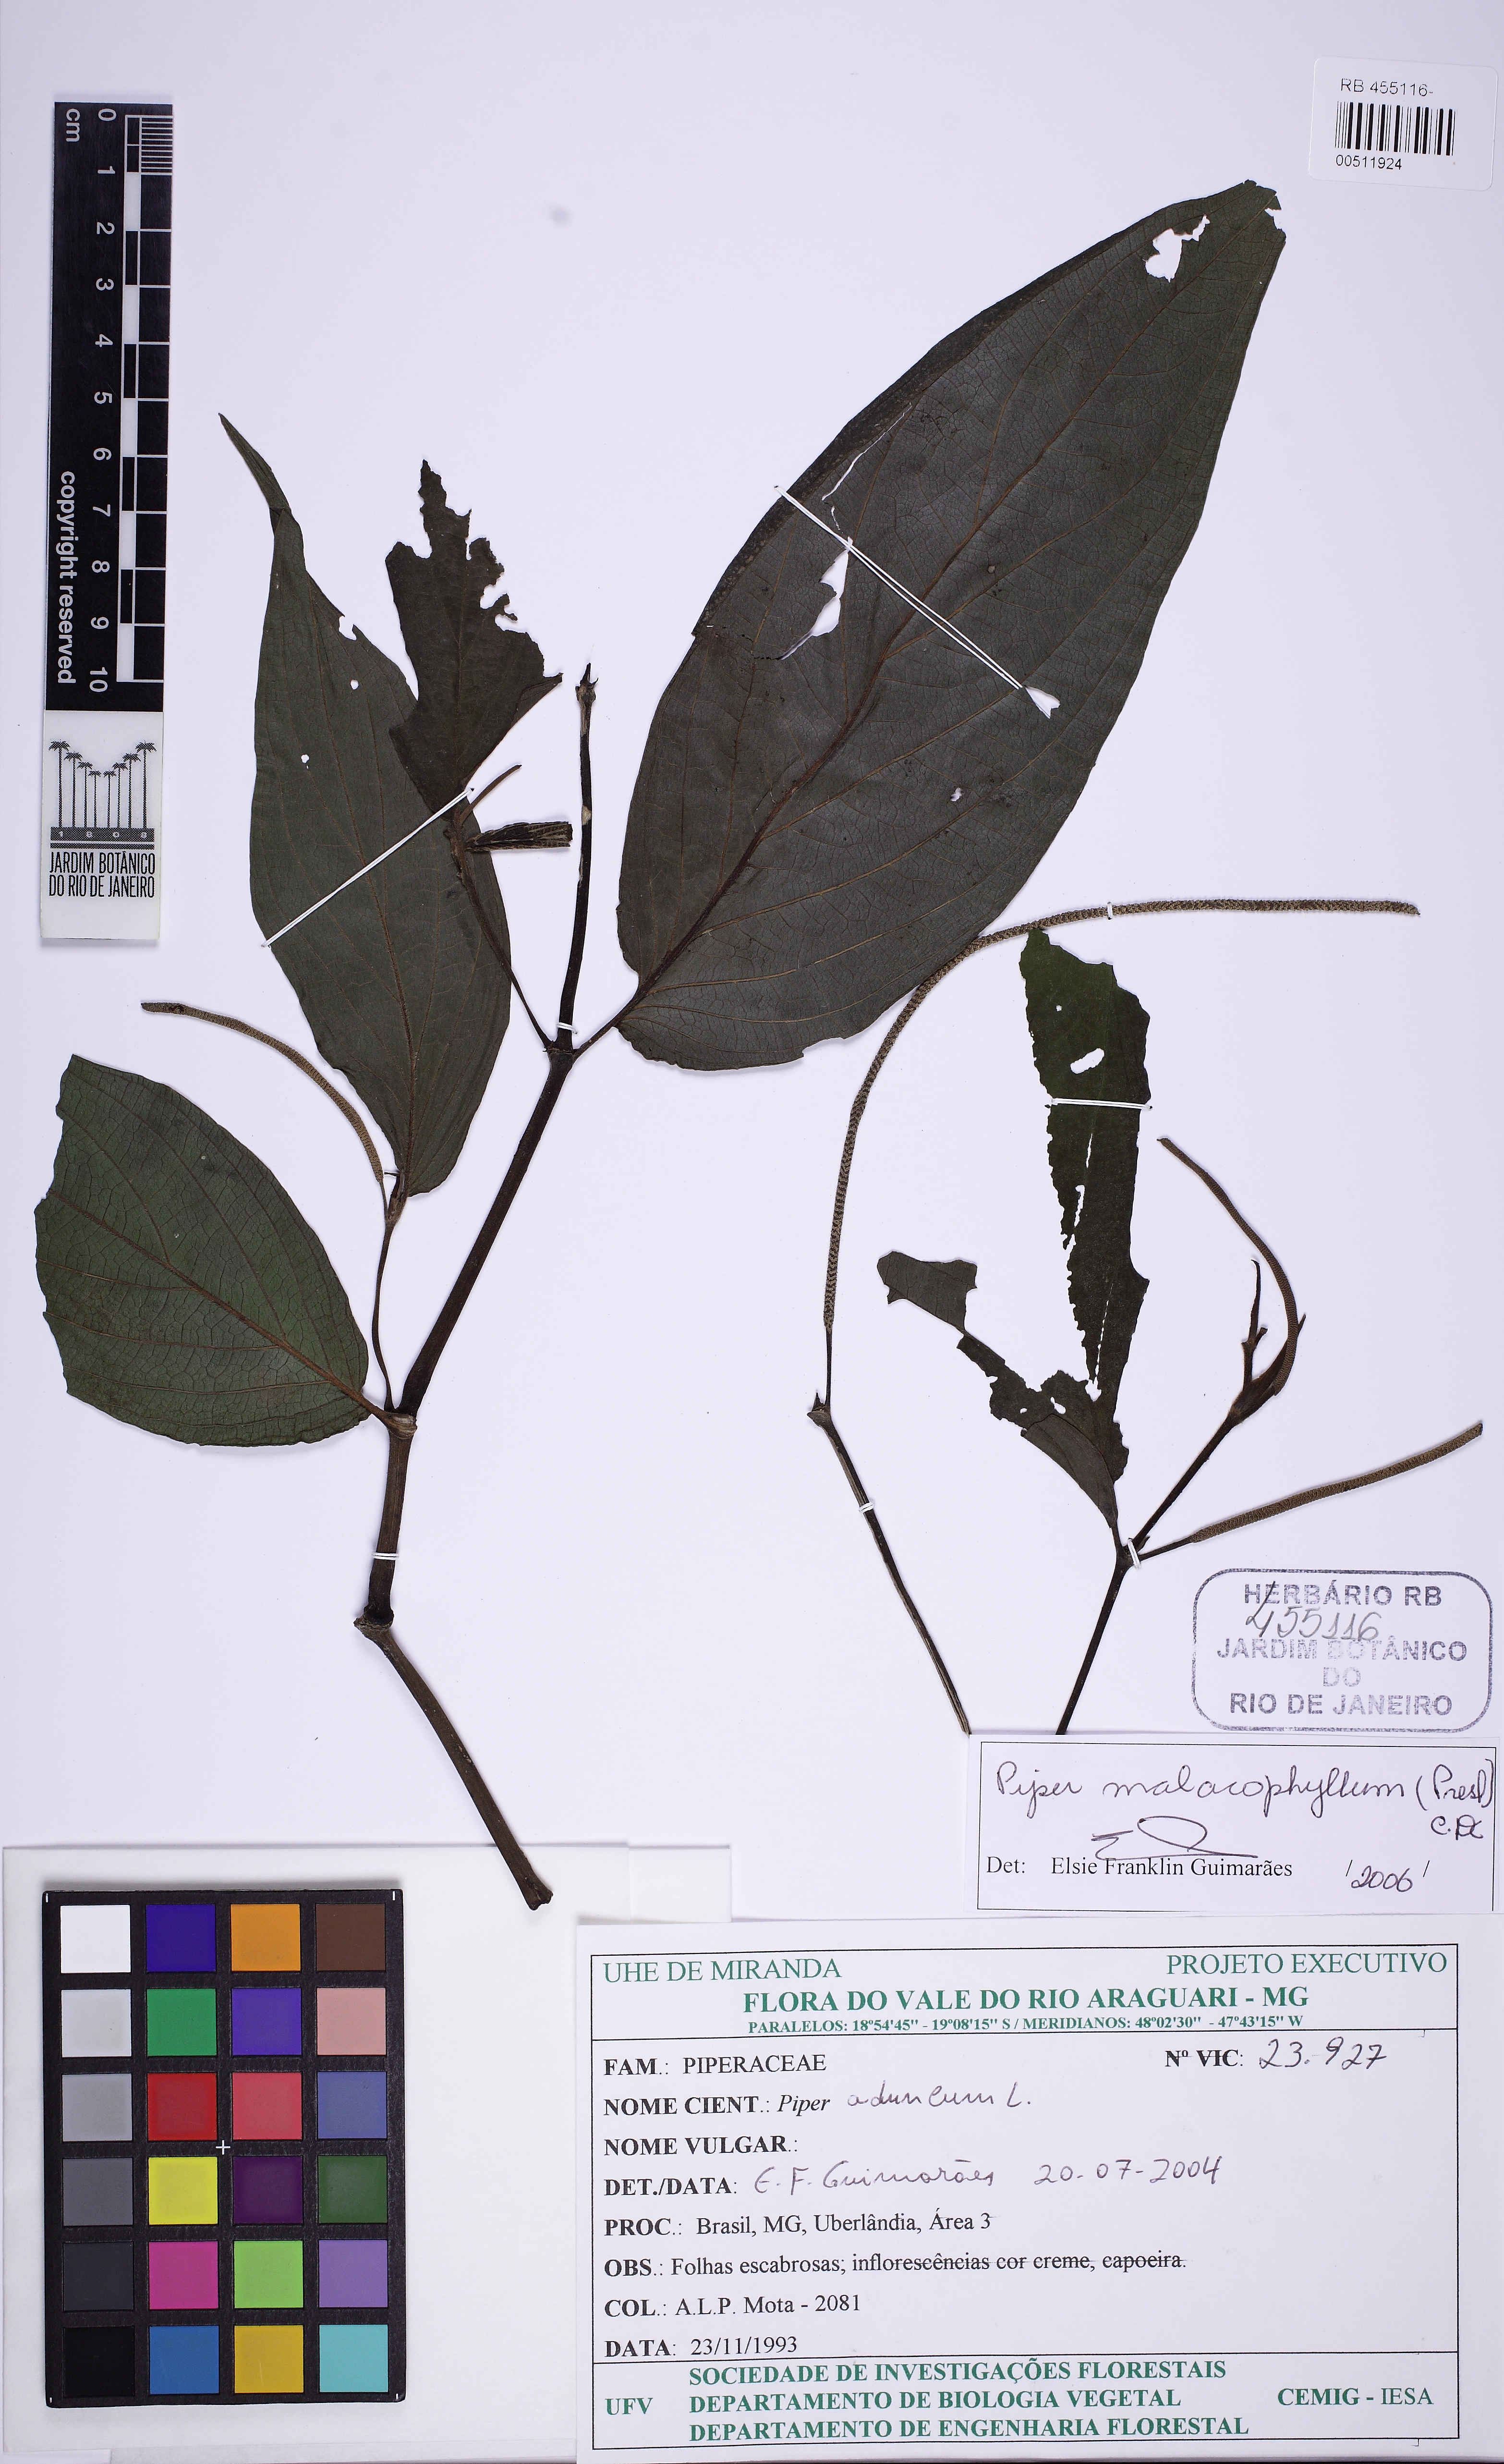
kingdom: Plantae
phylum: Tracheophyta
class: Magnoliopsida
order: Piperales
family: Piperaceae
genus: Piper
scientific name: Piper malacophyllum
